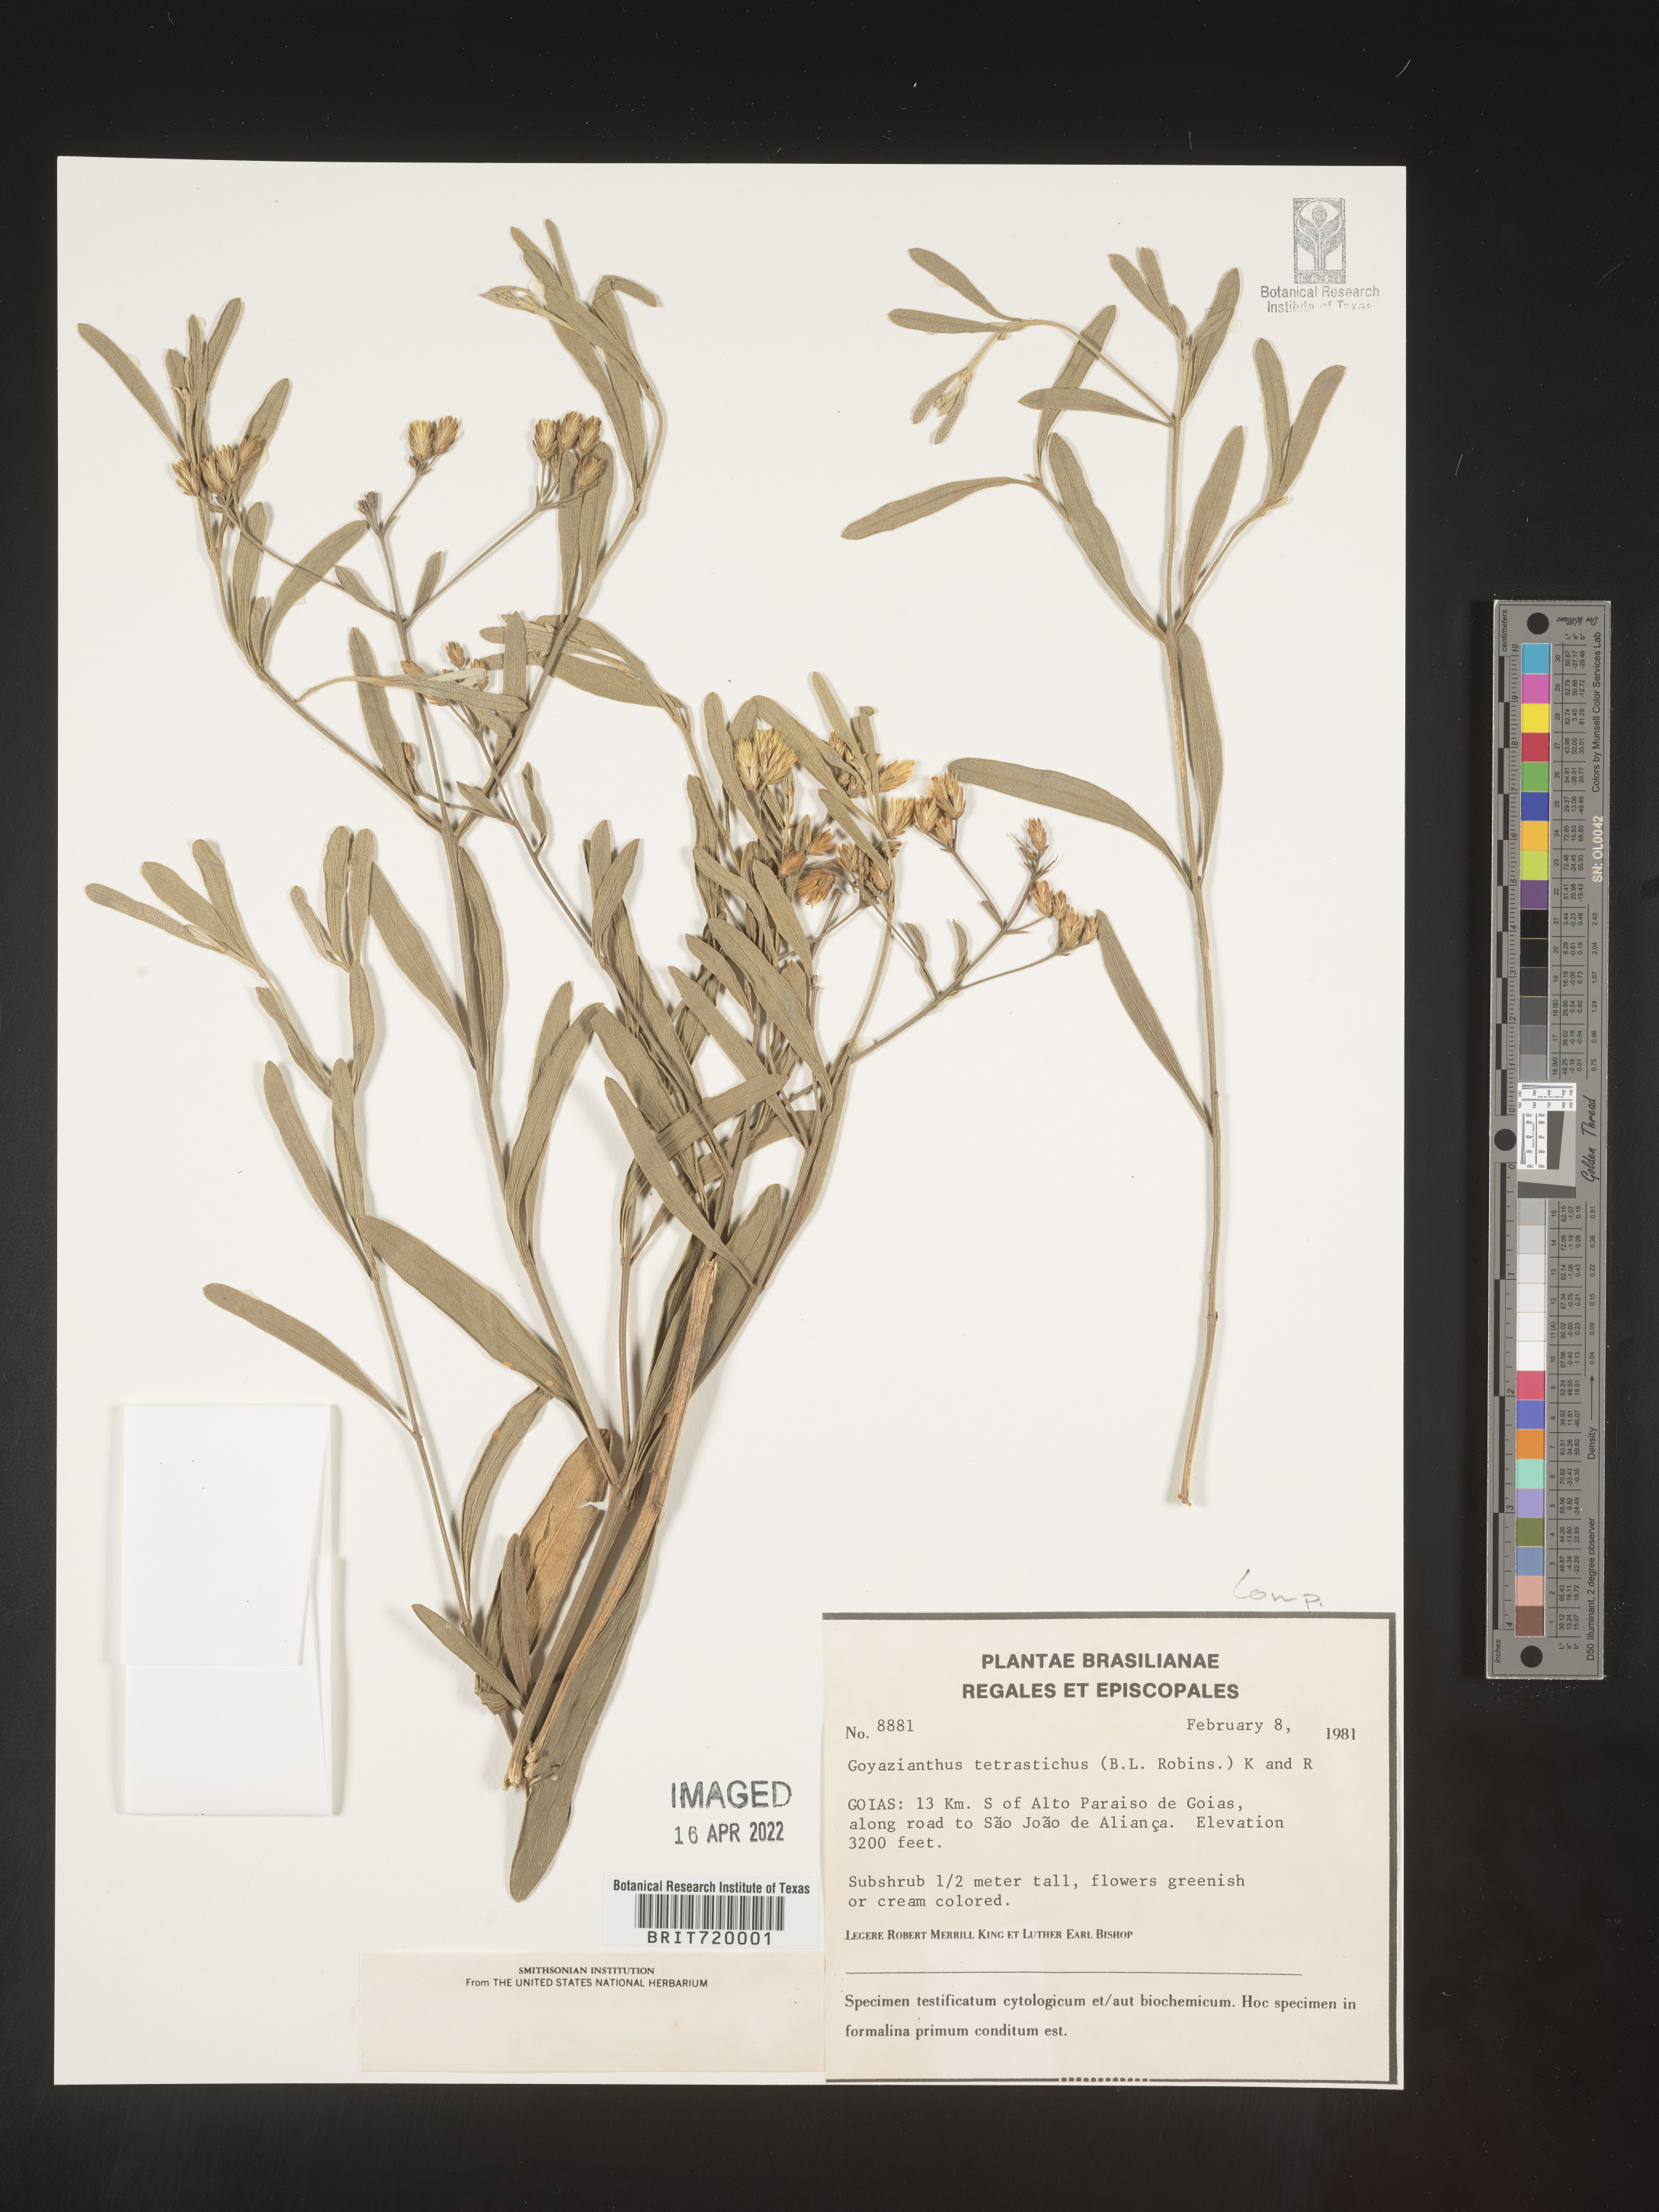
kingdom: Plantae
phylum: Tracheophyta
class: Magnoliopsida
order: Asterales
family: Asteraceae
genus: Goyazianthus
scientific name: Goyazianthus tetrastichus
